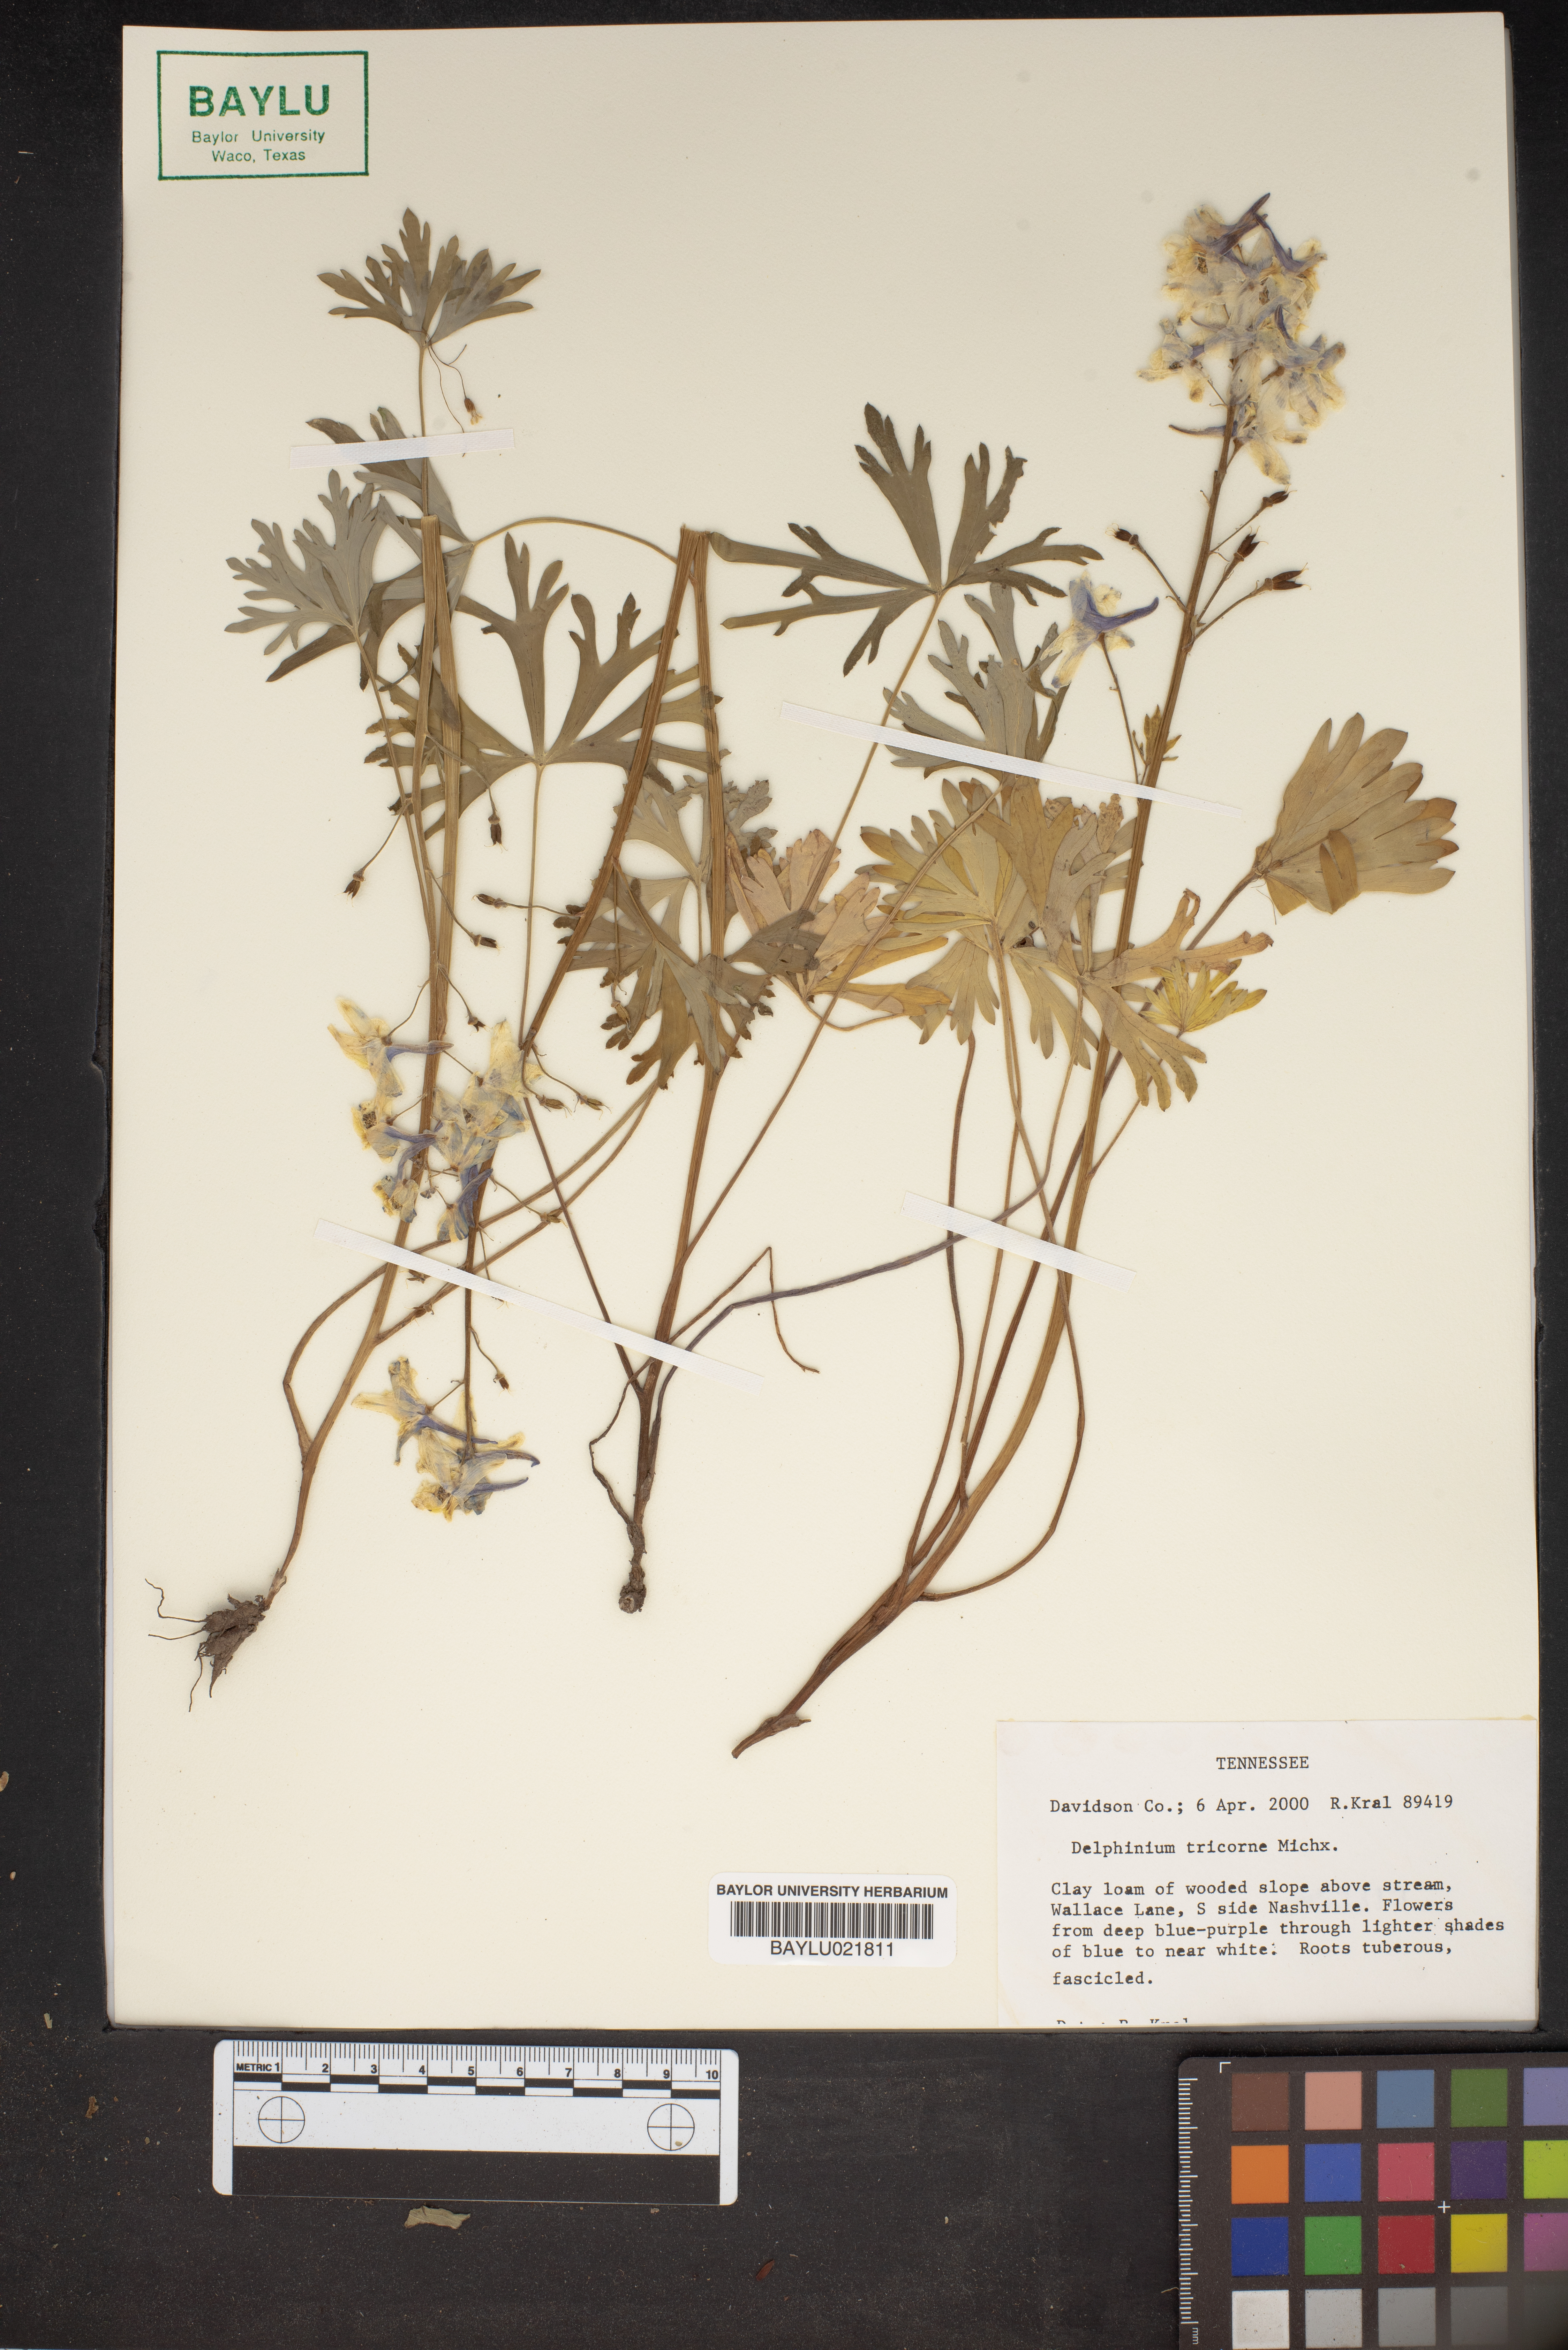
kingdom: Plantae
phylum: Tracheophyta
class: Magnoliopsida
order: Ranunculales
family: Ranunculaceae
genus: Delphinium
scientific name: Delphinium tricorne
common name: Dwarf larkspur
